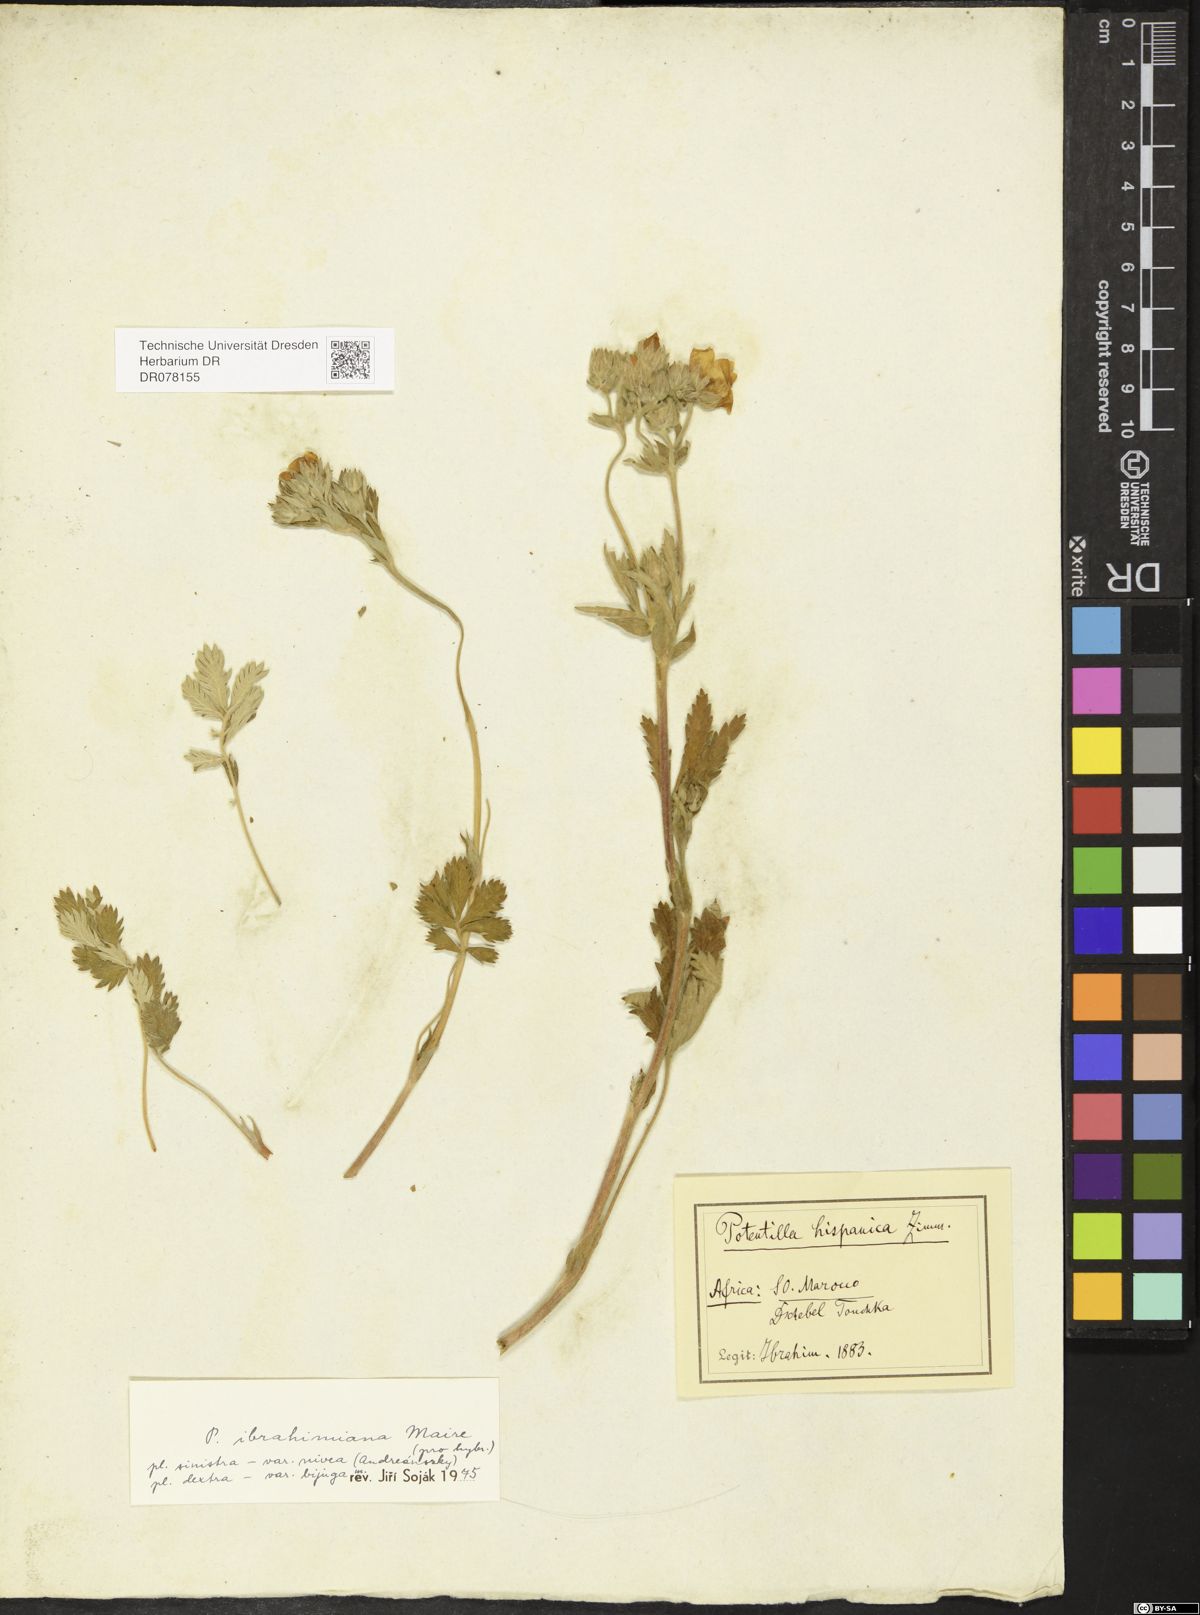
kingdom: Plantae
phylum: Tracheophyta
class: Magnoliopsida
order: Rosales
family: Rosaceae
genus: Potentilla
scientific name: Potentilla ibrahimiana
